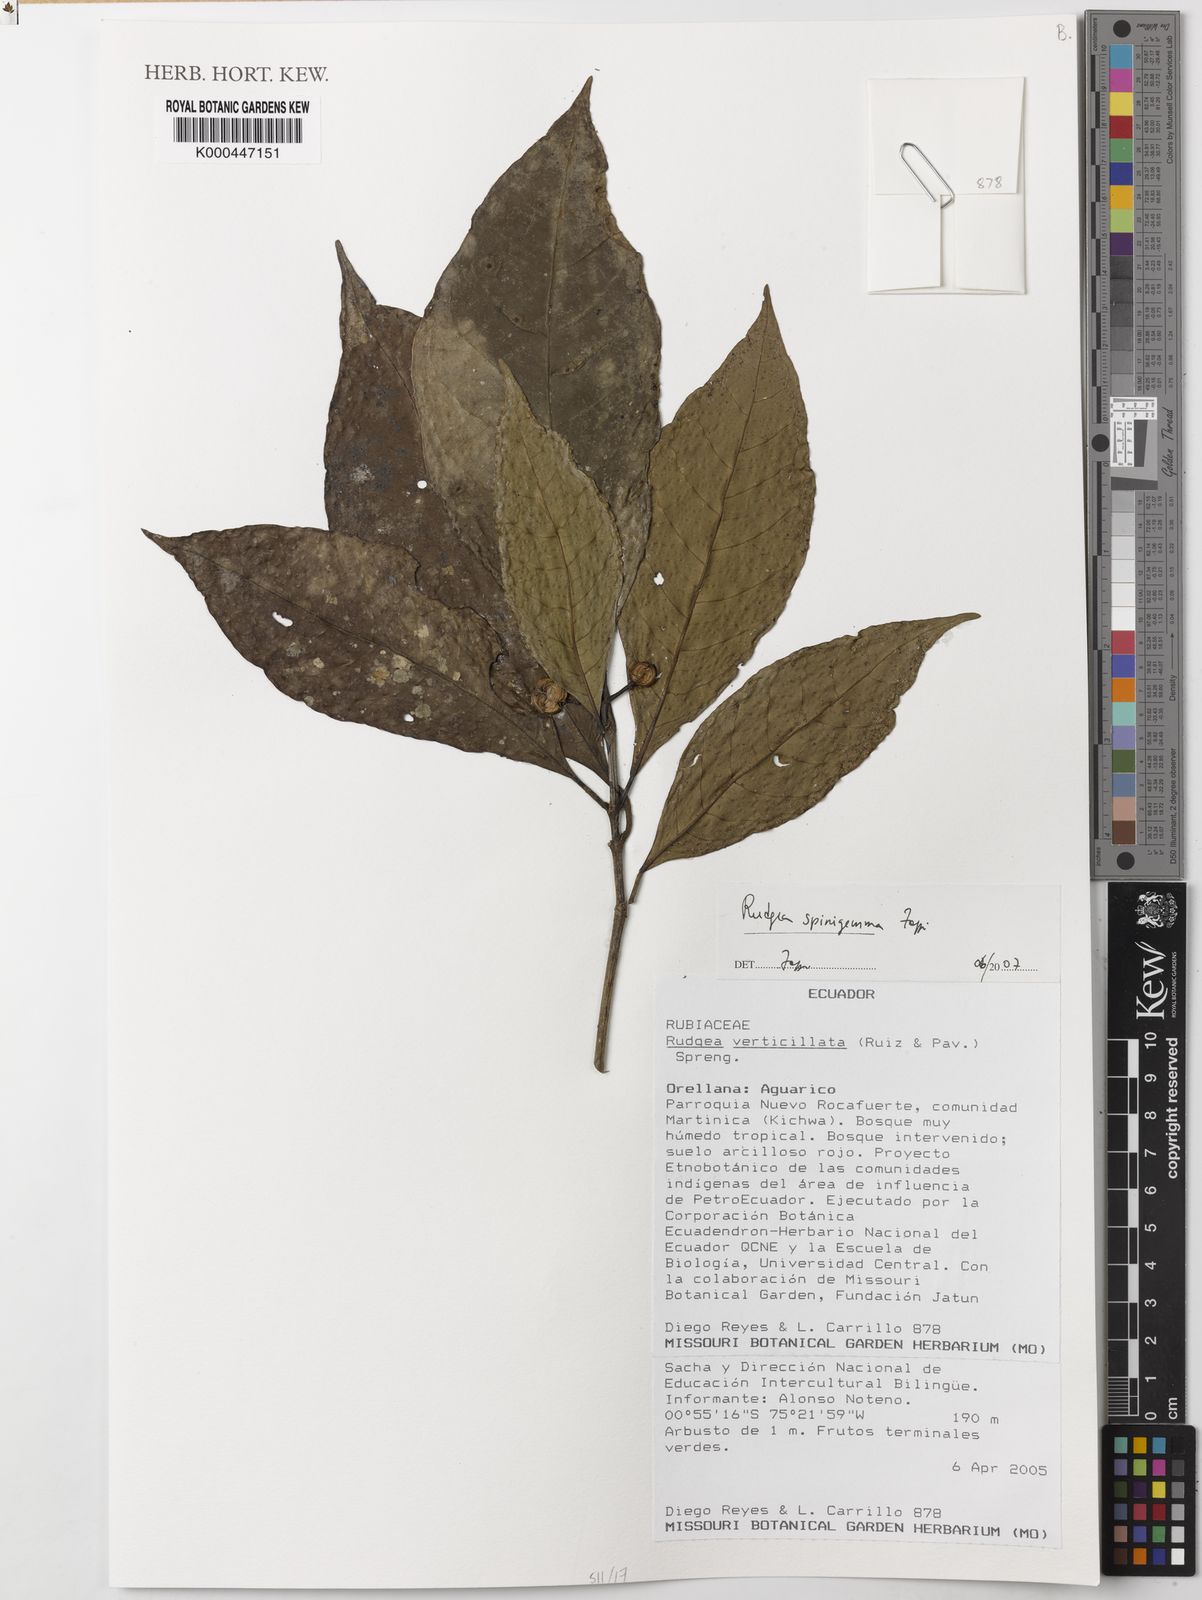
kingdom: Plantae
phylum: Tracheophyta
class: Magnoliopsida
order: Gentianales
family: Rubiaceae
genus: Rudgea
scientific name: Rudgea spinigemma
